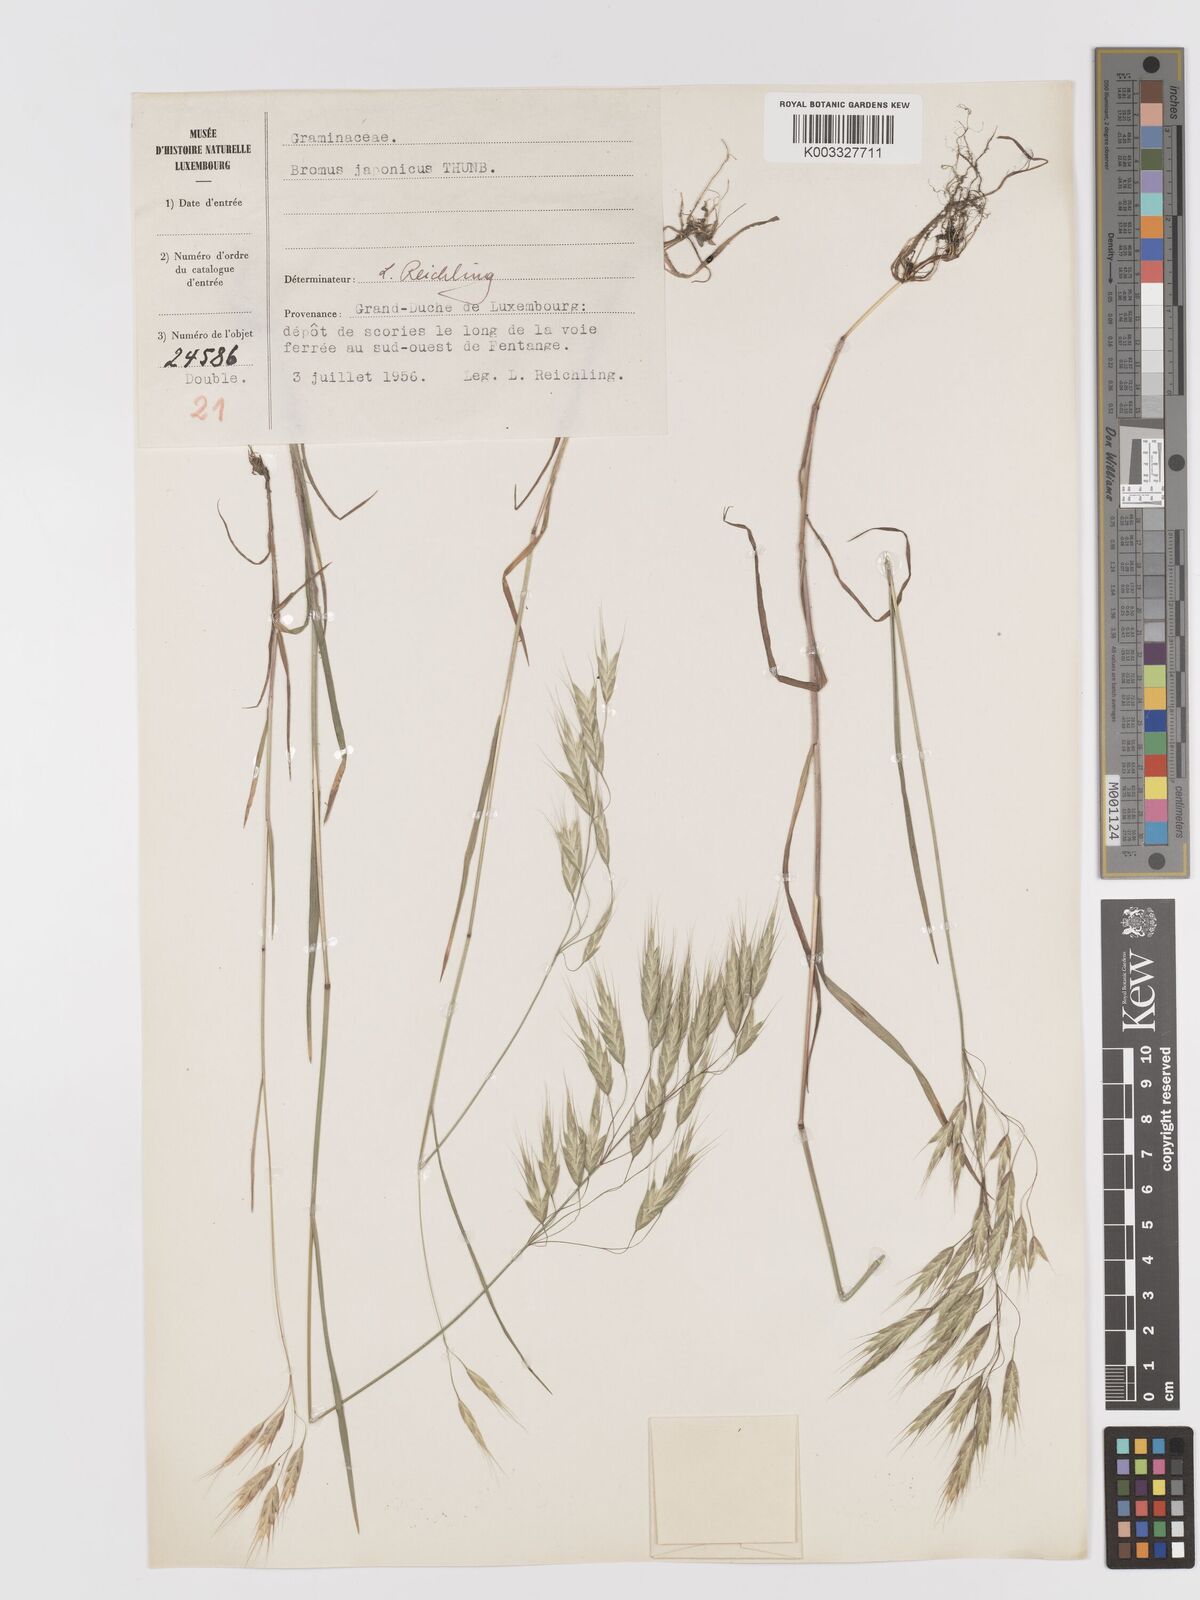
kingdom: Plantae
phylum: Tracheophyta
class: Liliopsida
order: Poales
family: Poaceae
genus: Bromus
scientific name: Bromus japonicus
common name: Japanese brome
